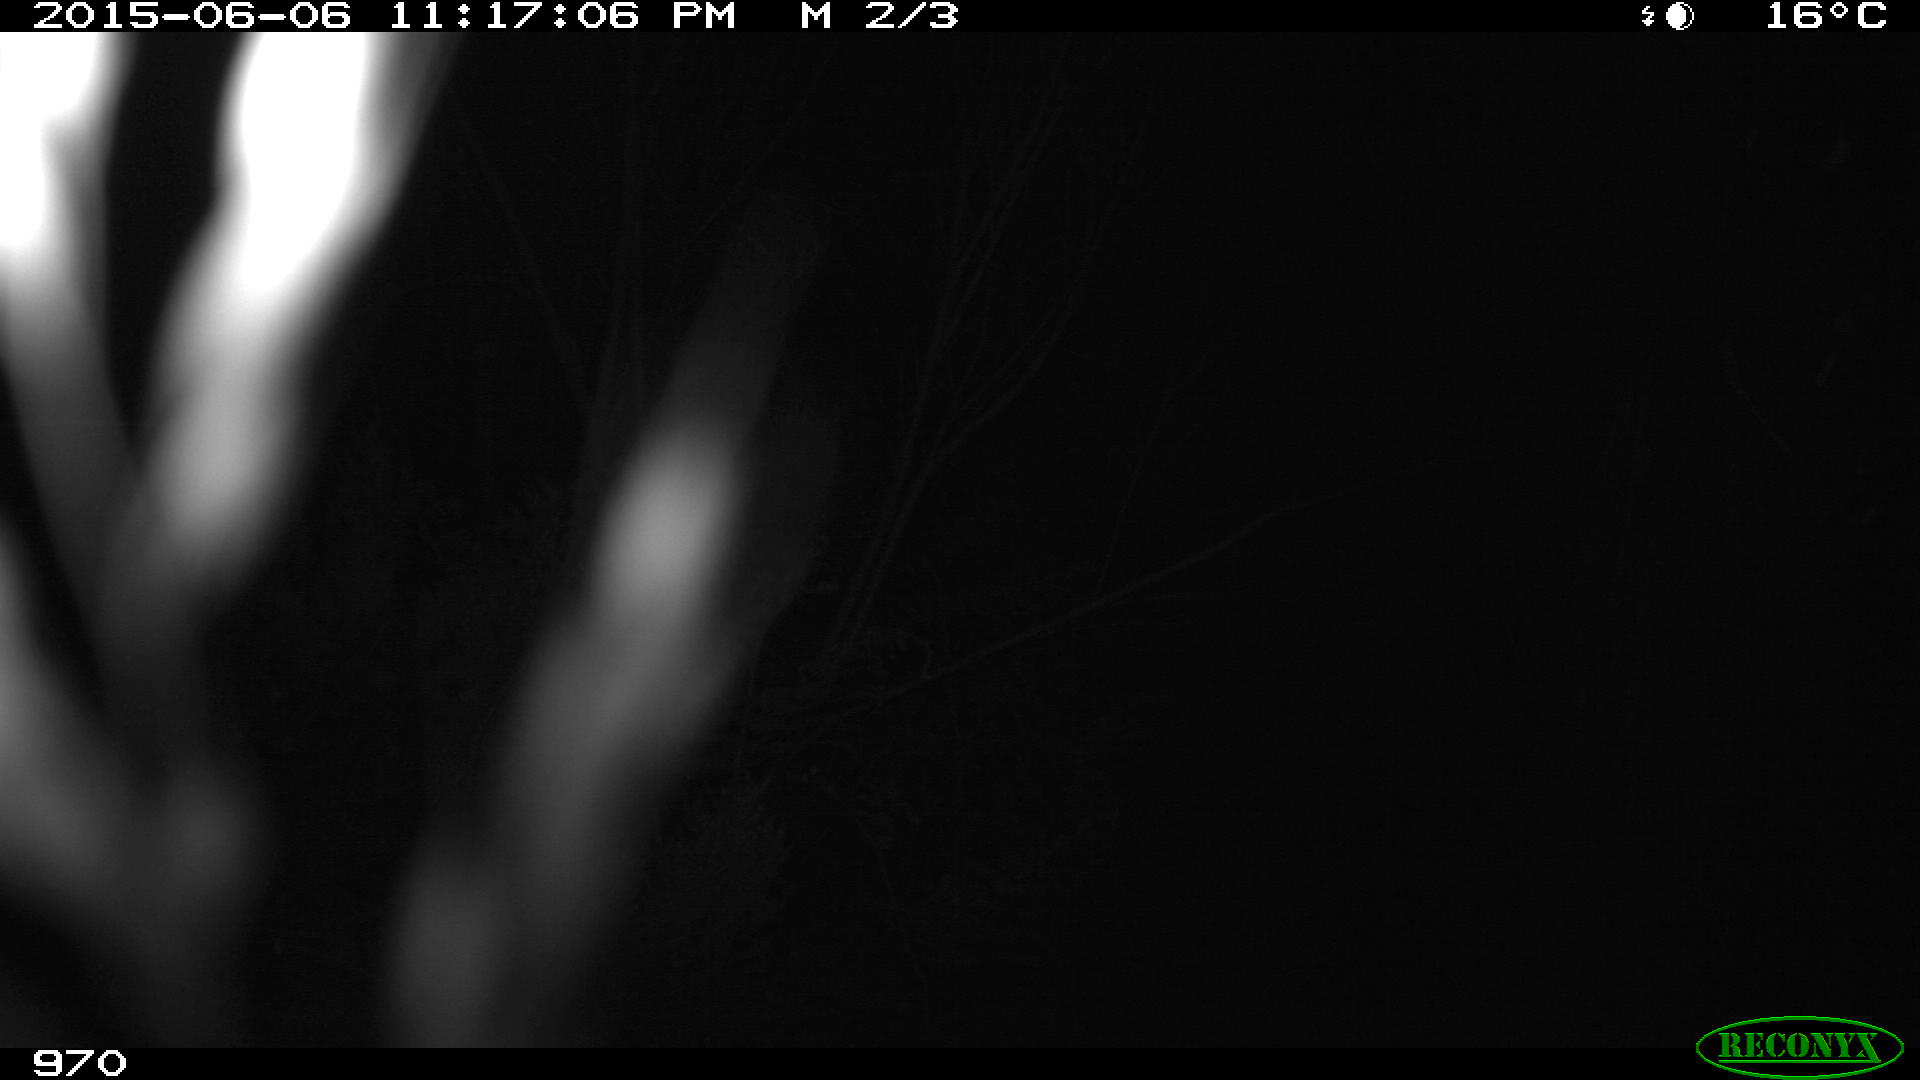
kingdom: Animalia
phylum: Chordata
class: Mammalia
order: Perissodactyla
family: Equidae
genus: Equus
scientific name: Equus caballus
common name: Horse
